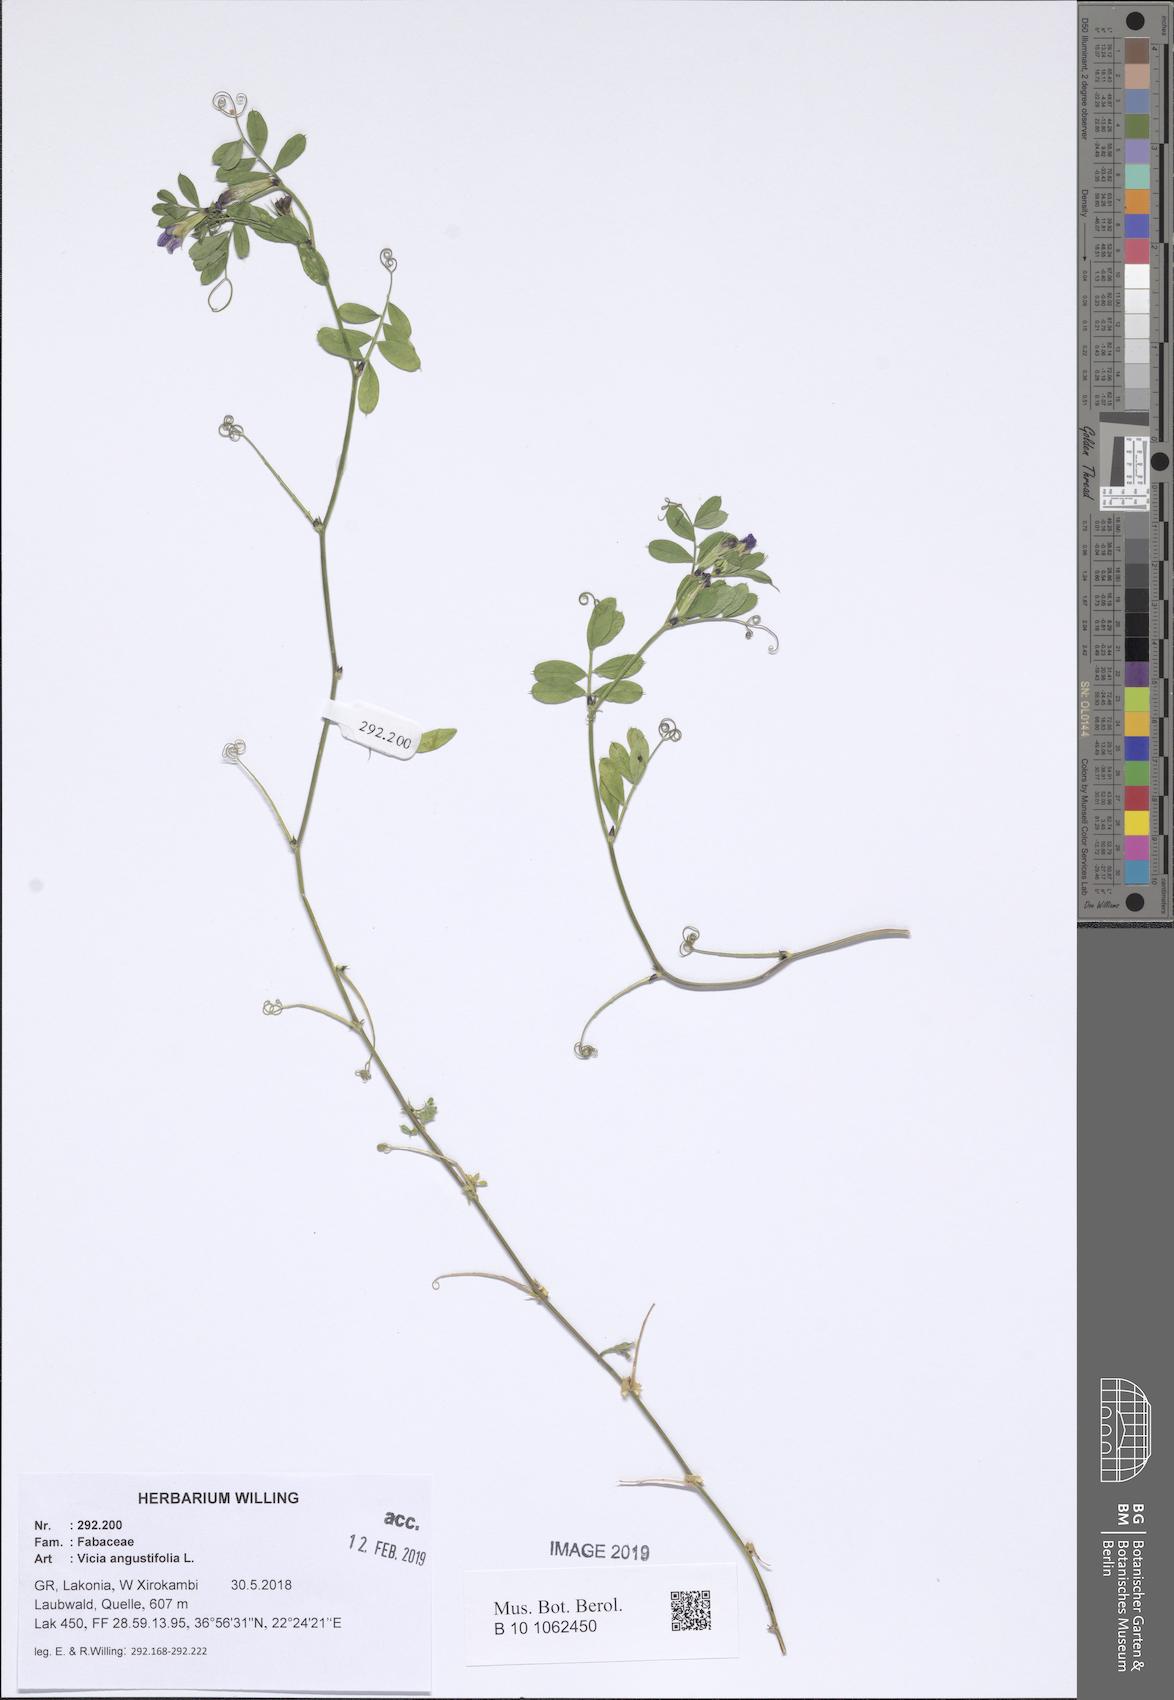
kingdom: Plantae
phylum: Tracheophyta
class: Magnoliopsida
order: Fabales
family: Fabaceae
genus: Vicia
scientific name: Vicia sativa
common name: Garden vetch
